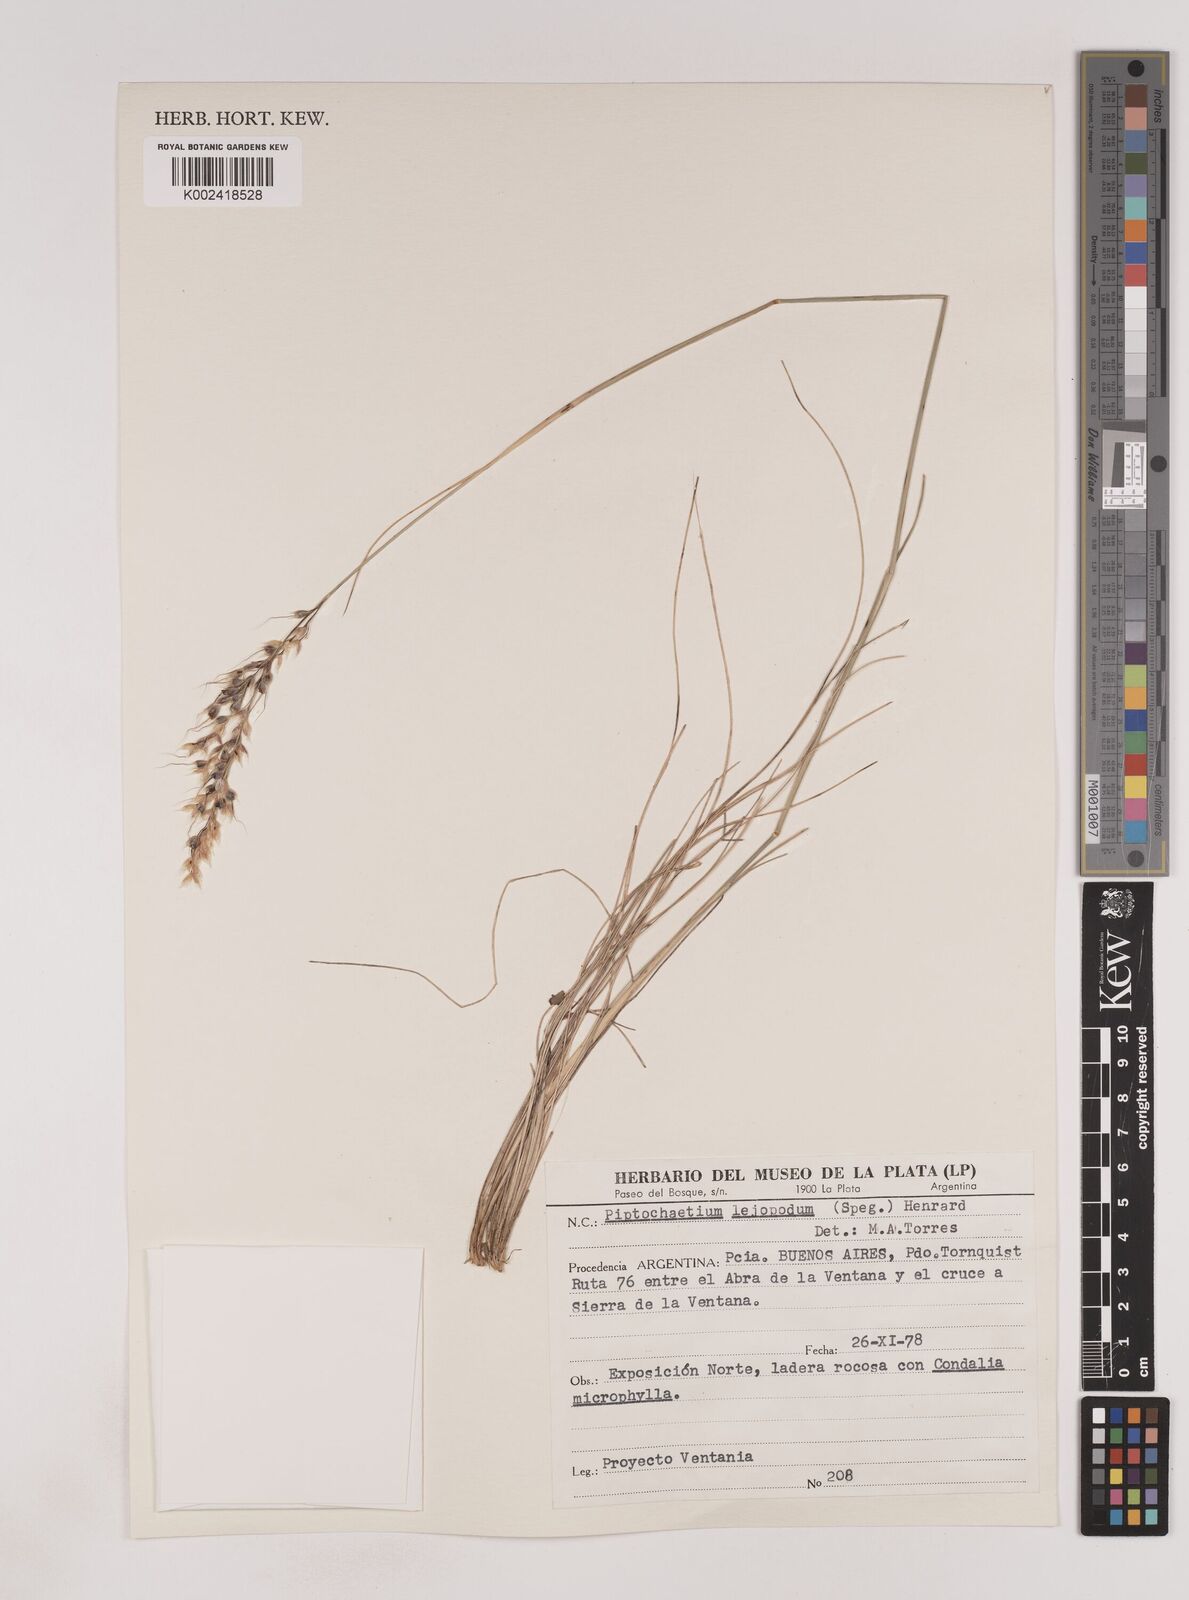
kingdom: Plantae
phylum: Tracheophyta
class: Liliopsida
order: Poales
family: Poaceae
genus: Piptochaetium
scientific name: Piptochaetium leiopodum
